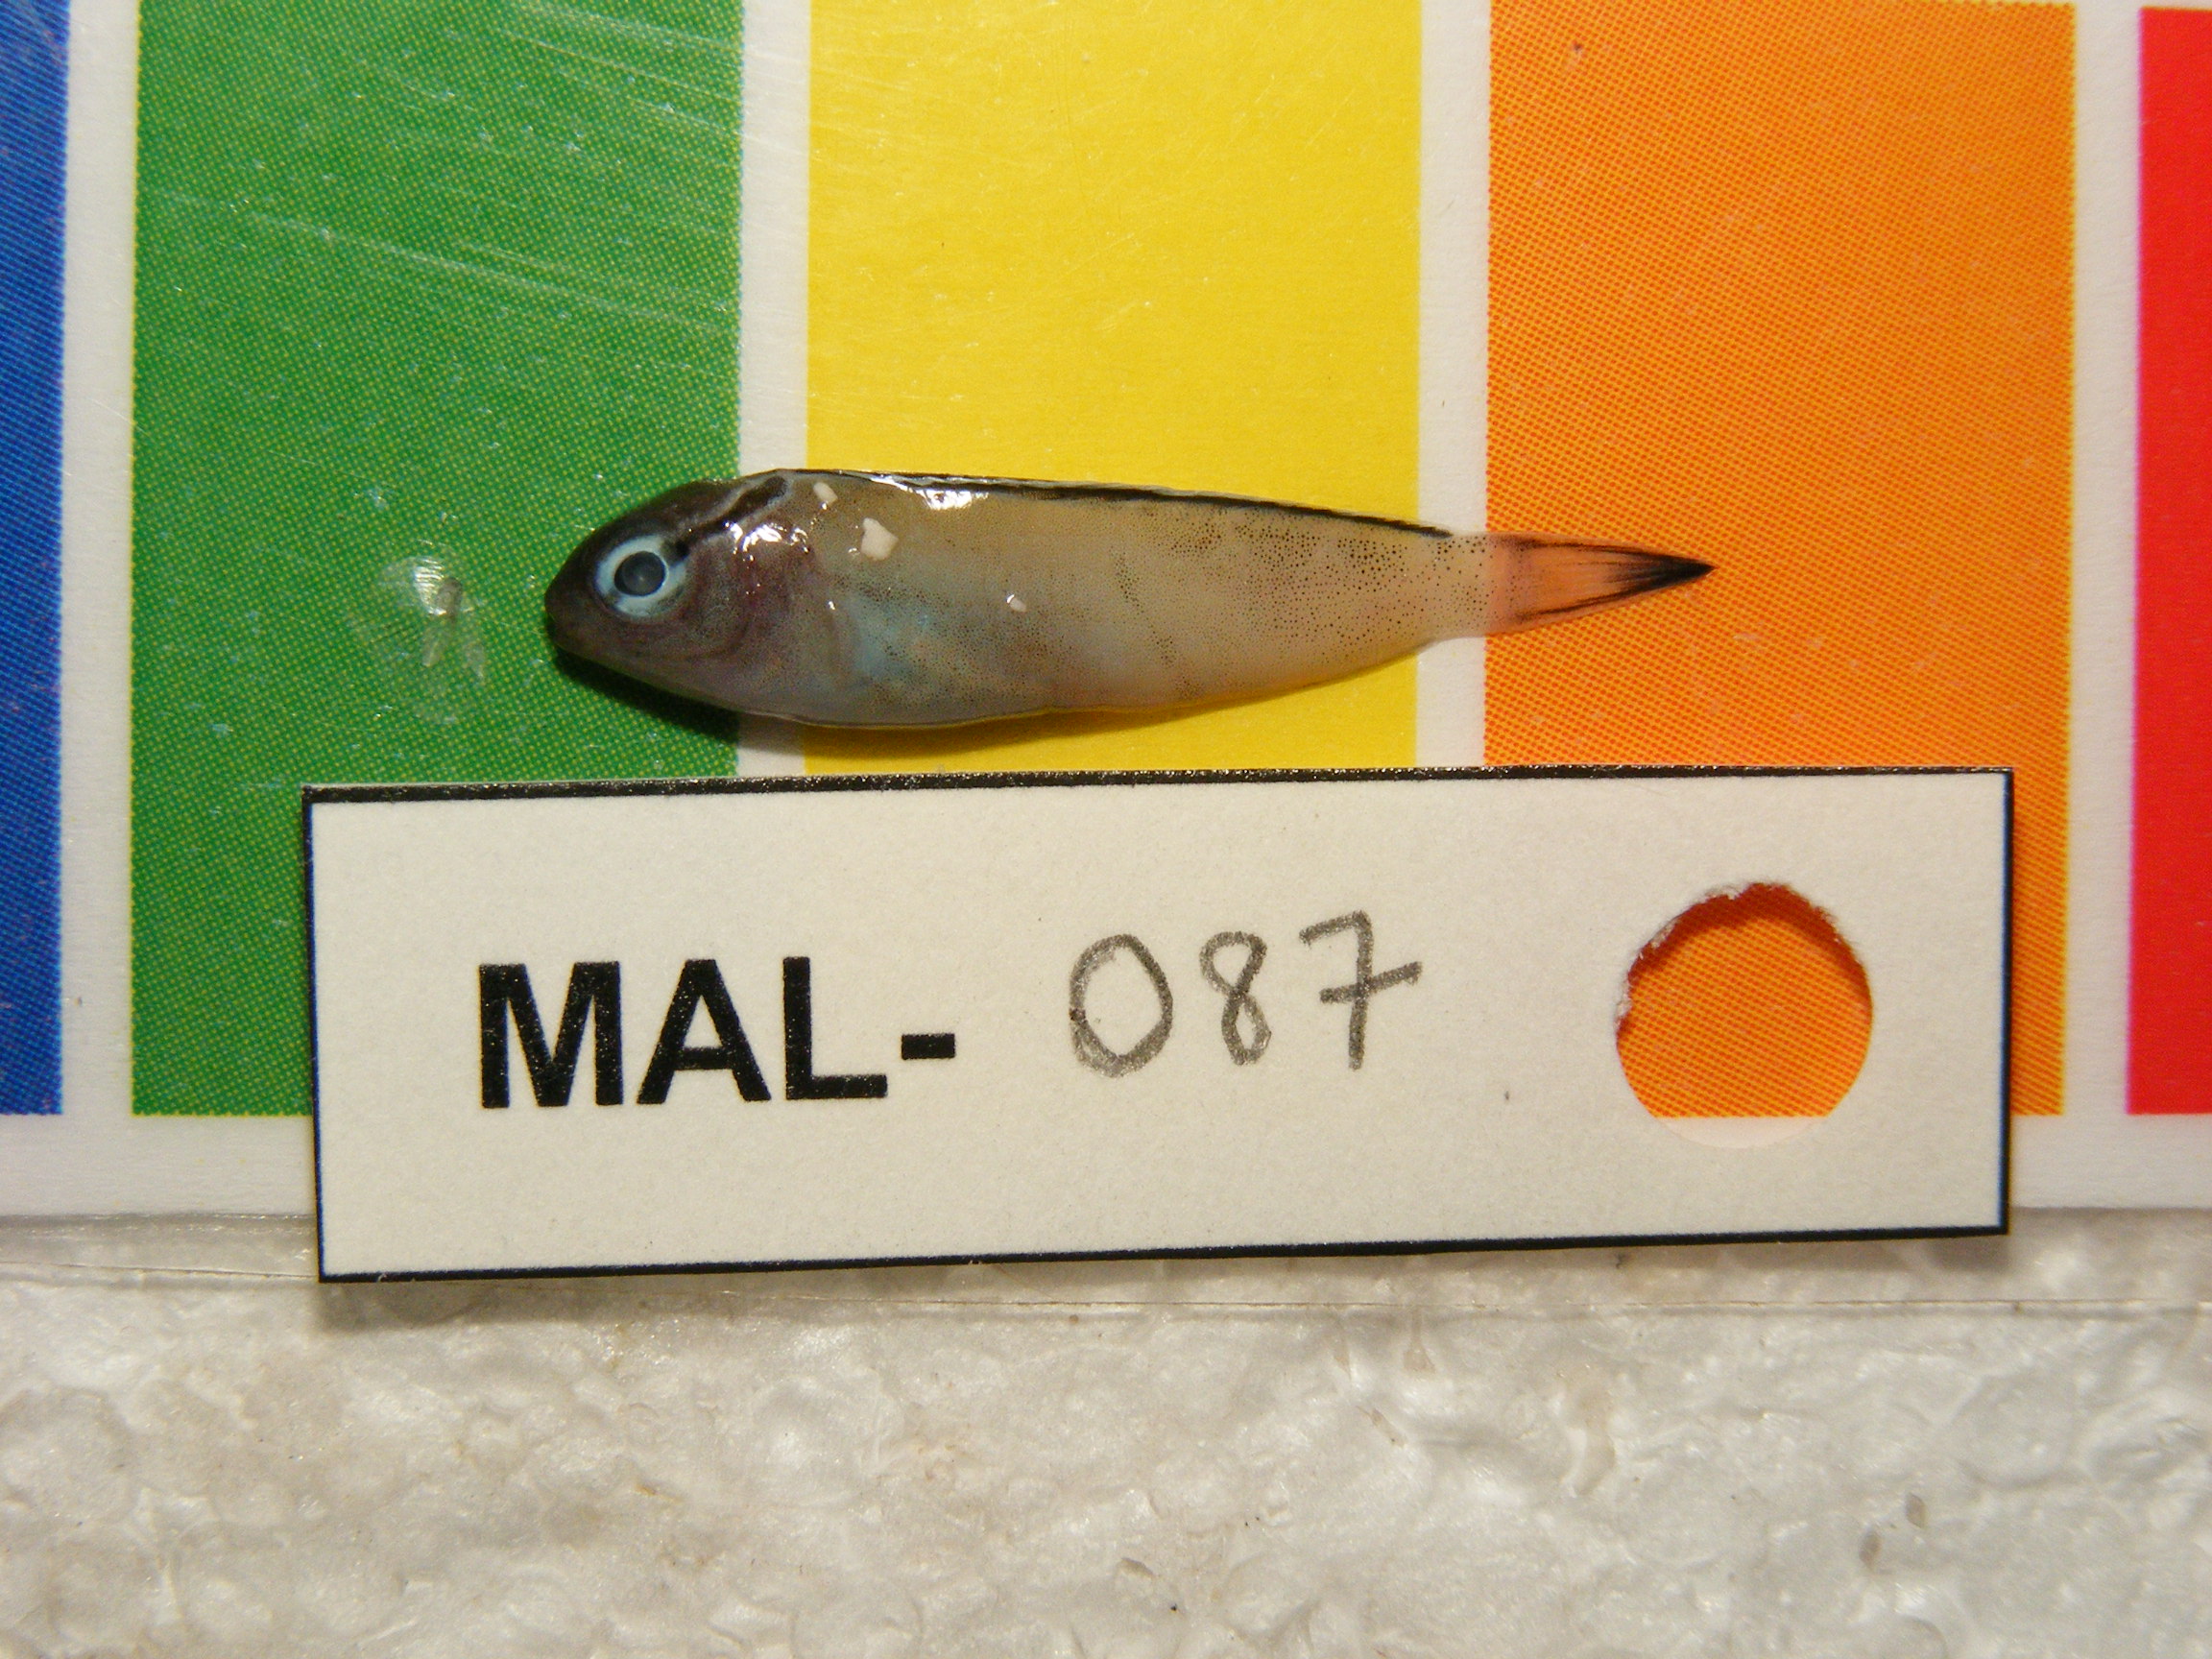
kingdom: Animalia
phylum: Chordata
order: Perciformes
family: Blenniidae
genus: Meiacanthus
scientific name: Meiacanthus smithi
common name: Disco blenny
